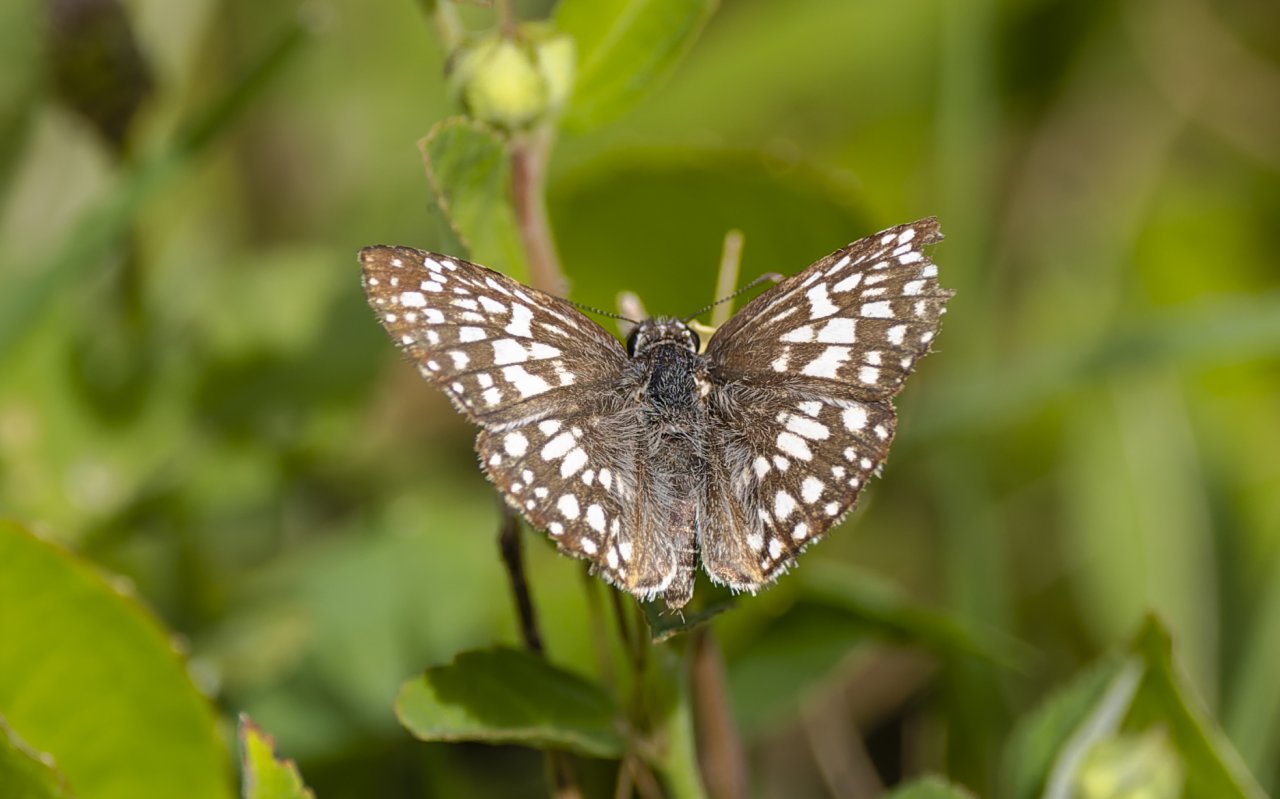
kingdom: Animalia
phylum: Arthropoda
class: Insecta
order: Lepidoptera
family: Hesperiidae
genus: Pyrgus
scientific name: Pyrgus oileus
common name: Tropical Checkered-Skipper
